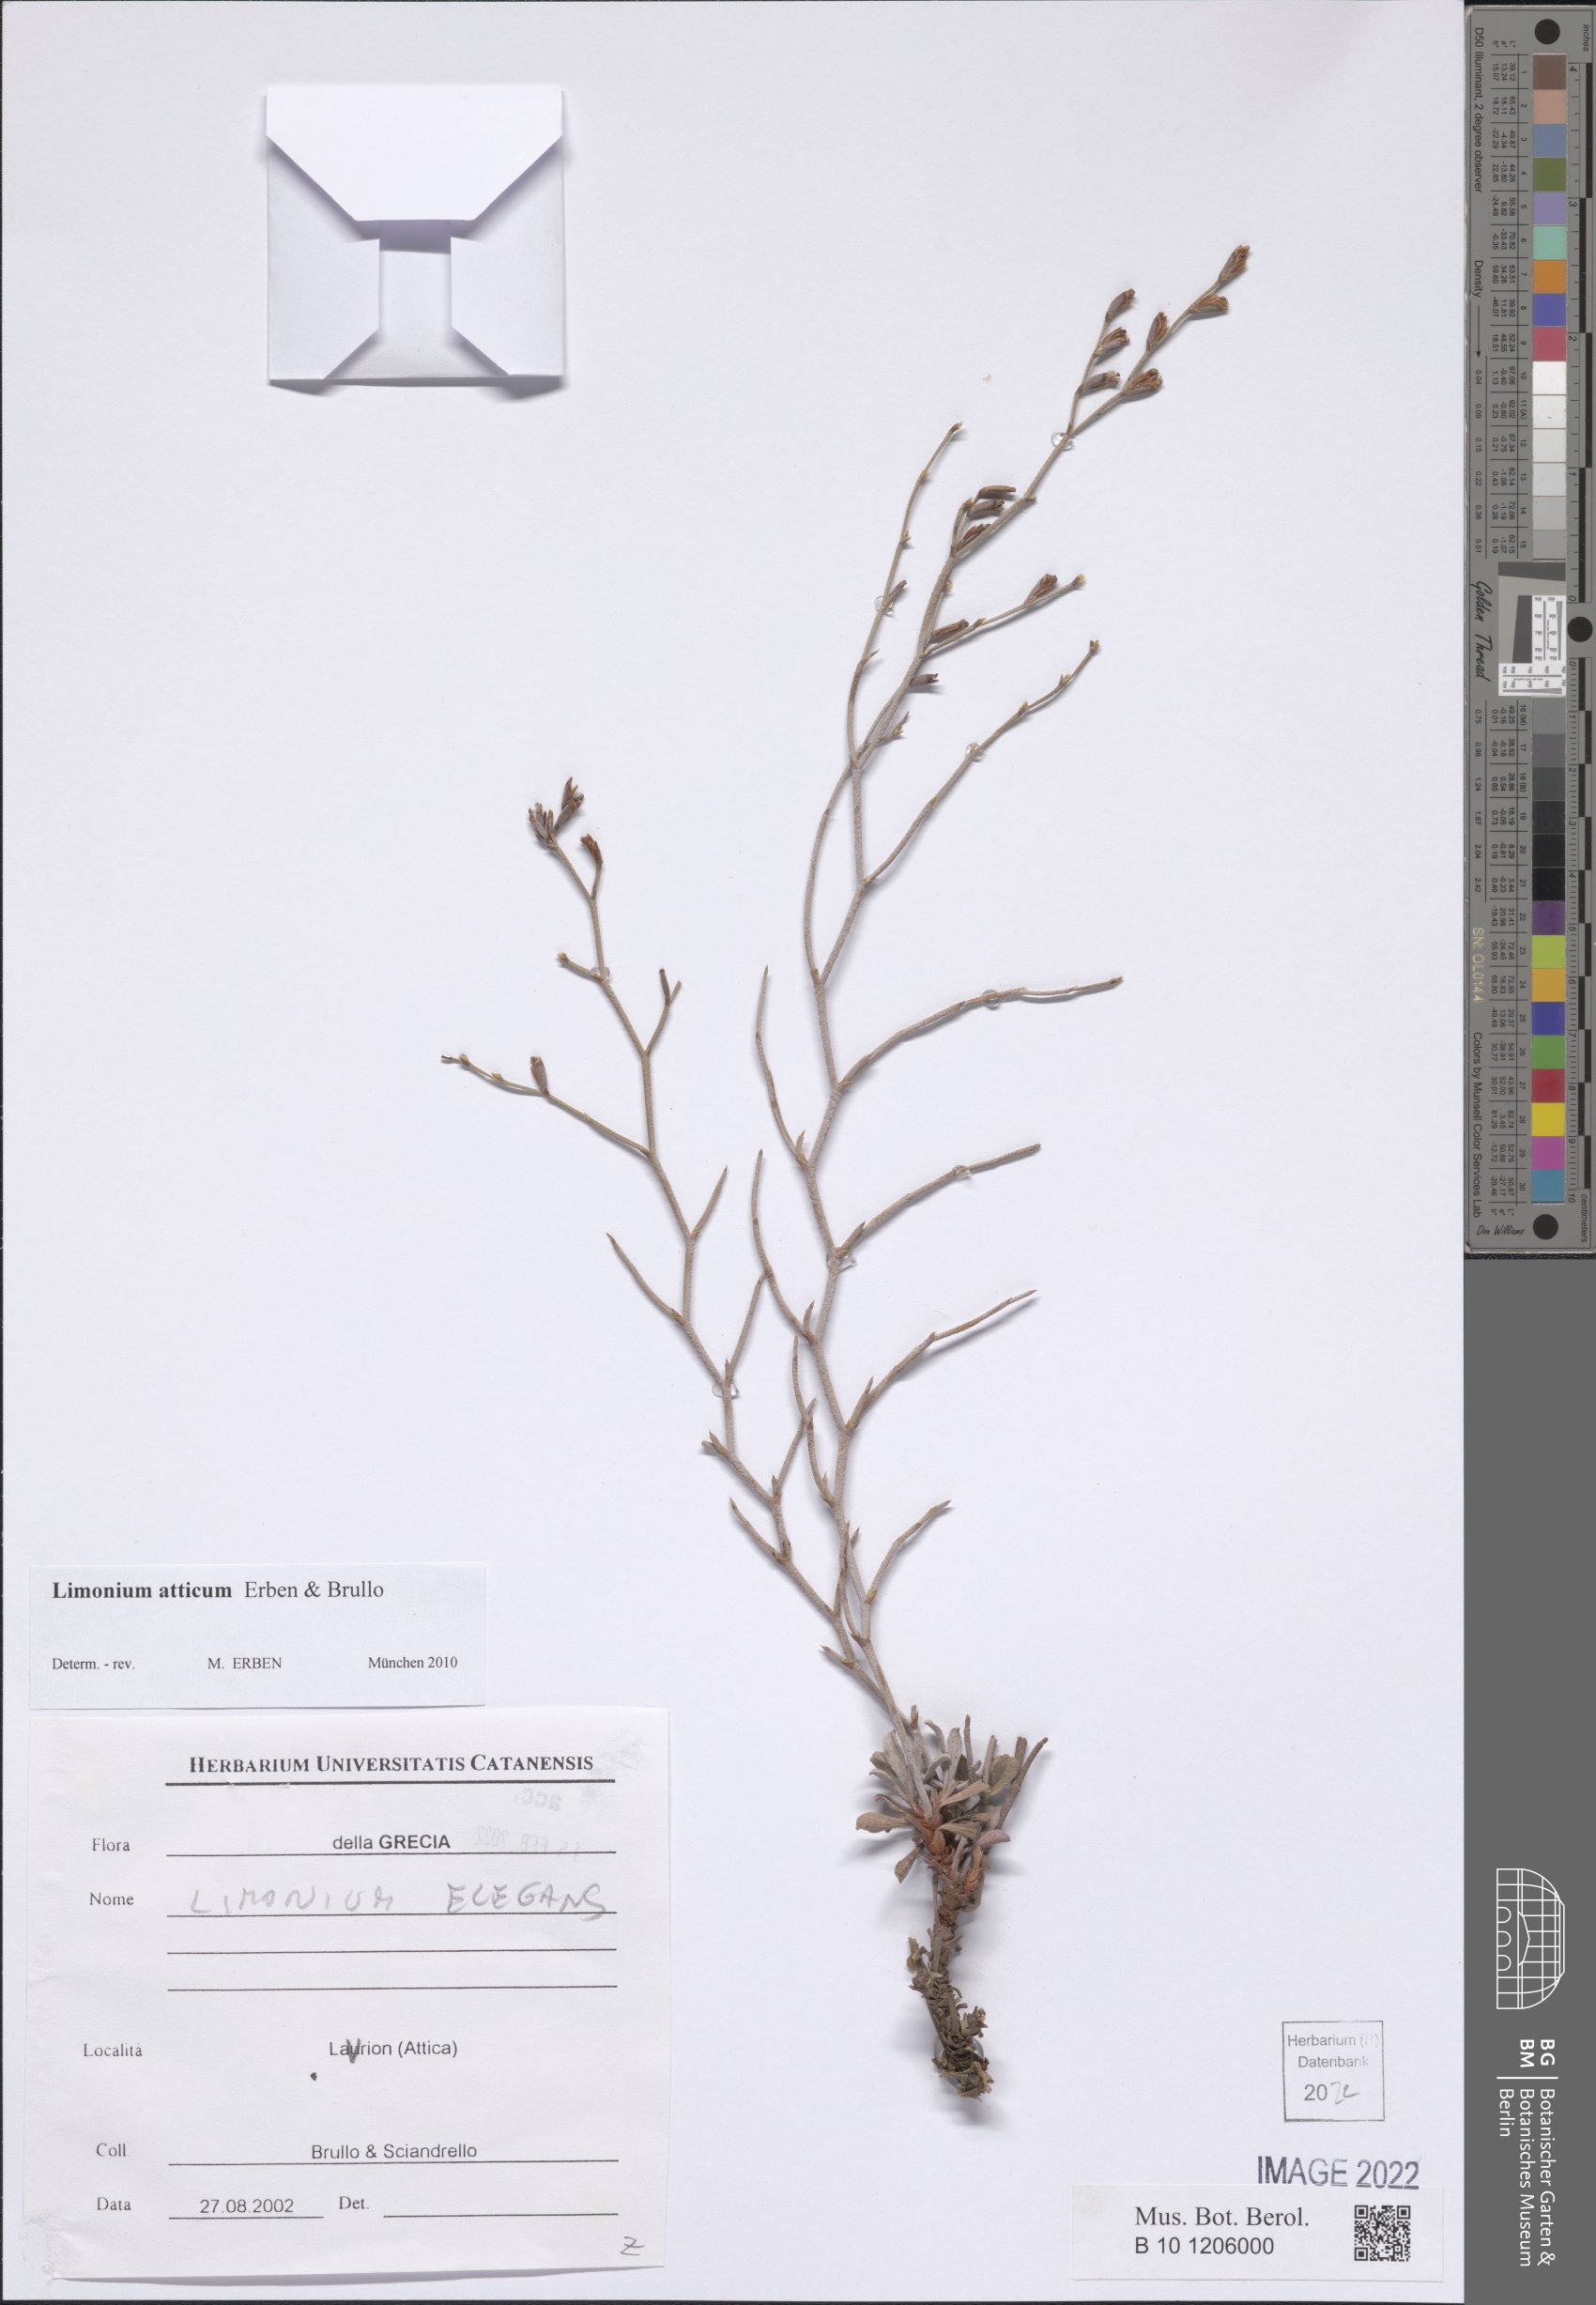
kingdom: Plantae
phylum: Tracheophyta
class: Magnoliopsida
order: Caryophyllales
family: Plumbaginaceae
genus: Limonium
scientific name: Limonium atticum
